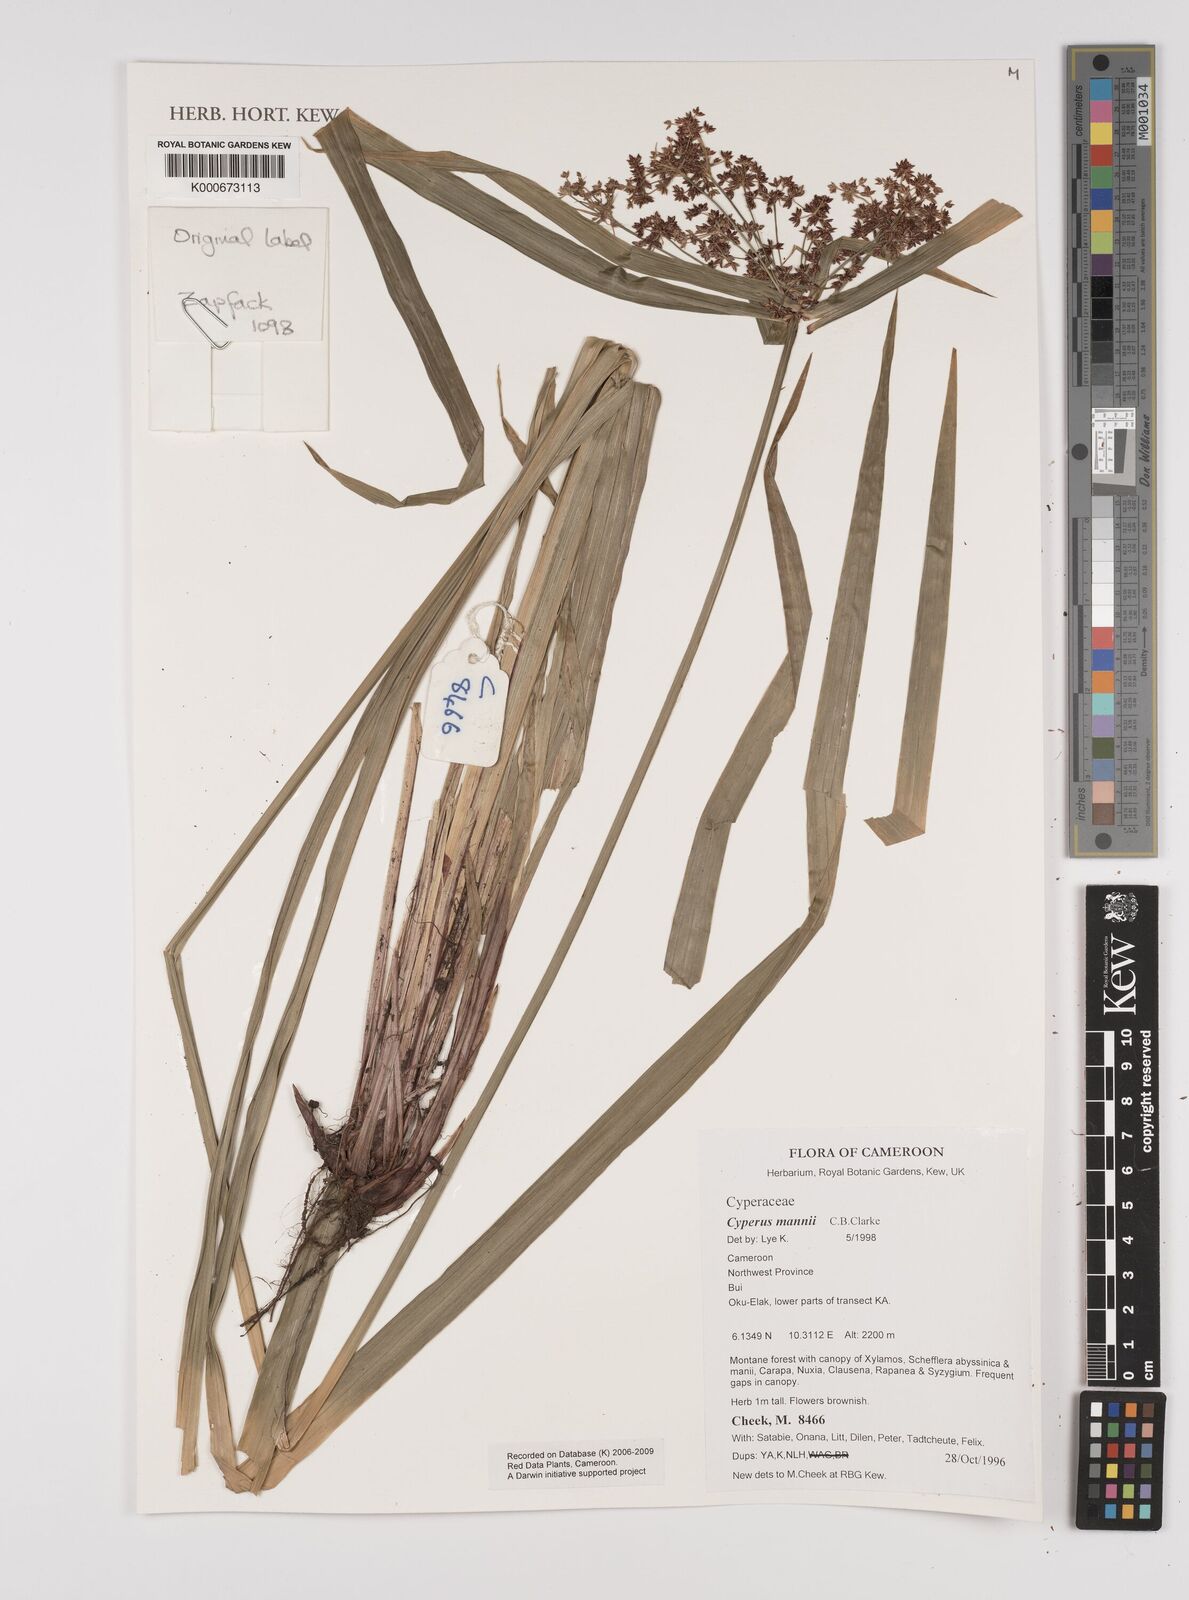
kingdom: Plantae
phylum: Tracheophyta
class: Liliopsida
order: Poales
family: Cyperaceae
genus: Cyperus
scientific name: Cyperus baronii
